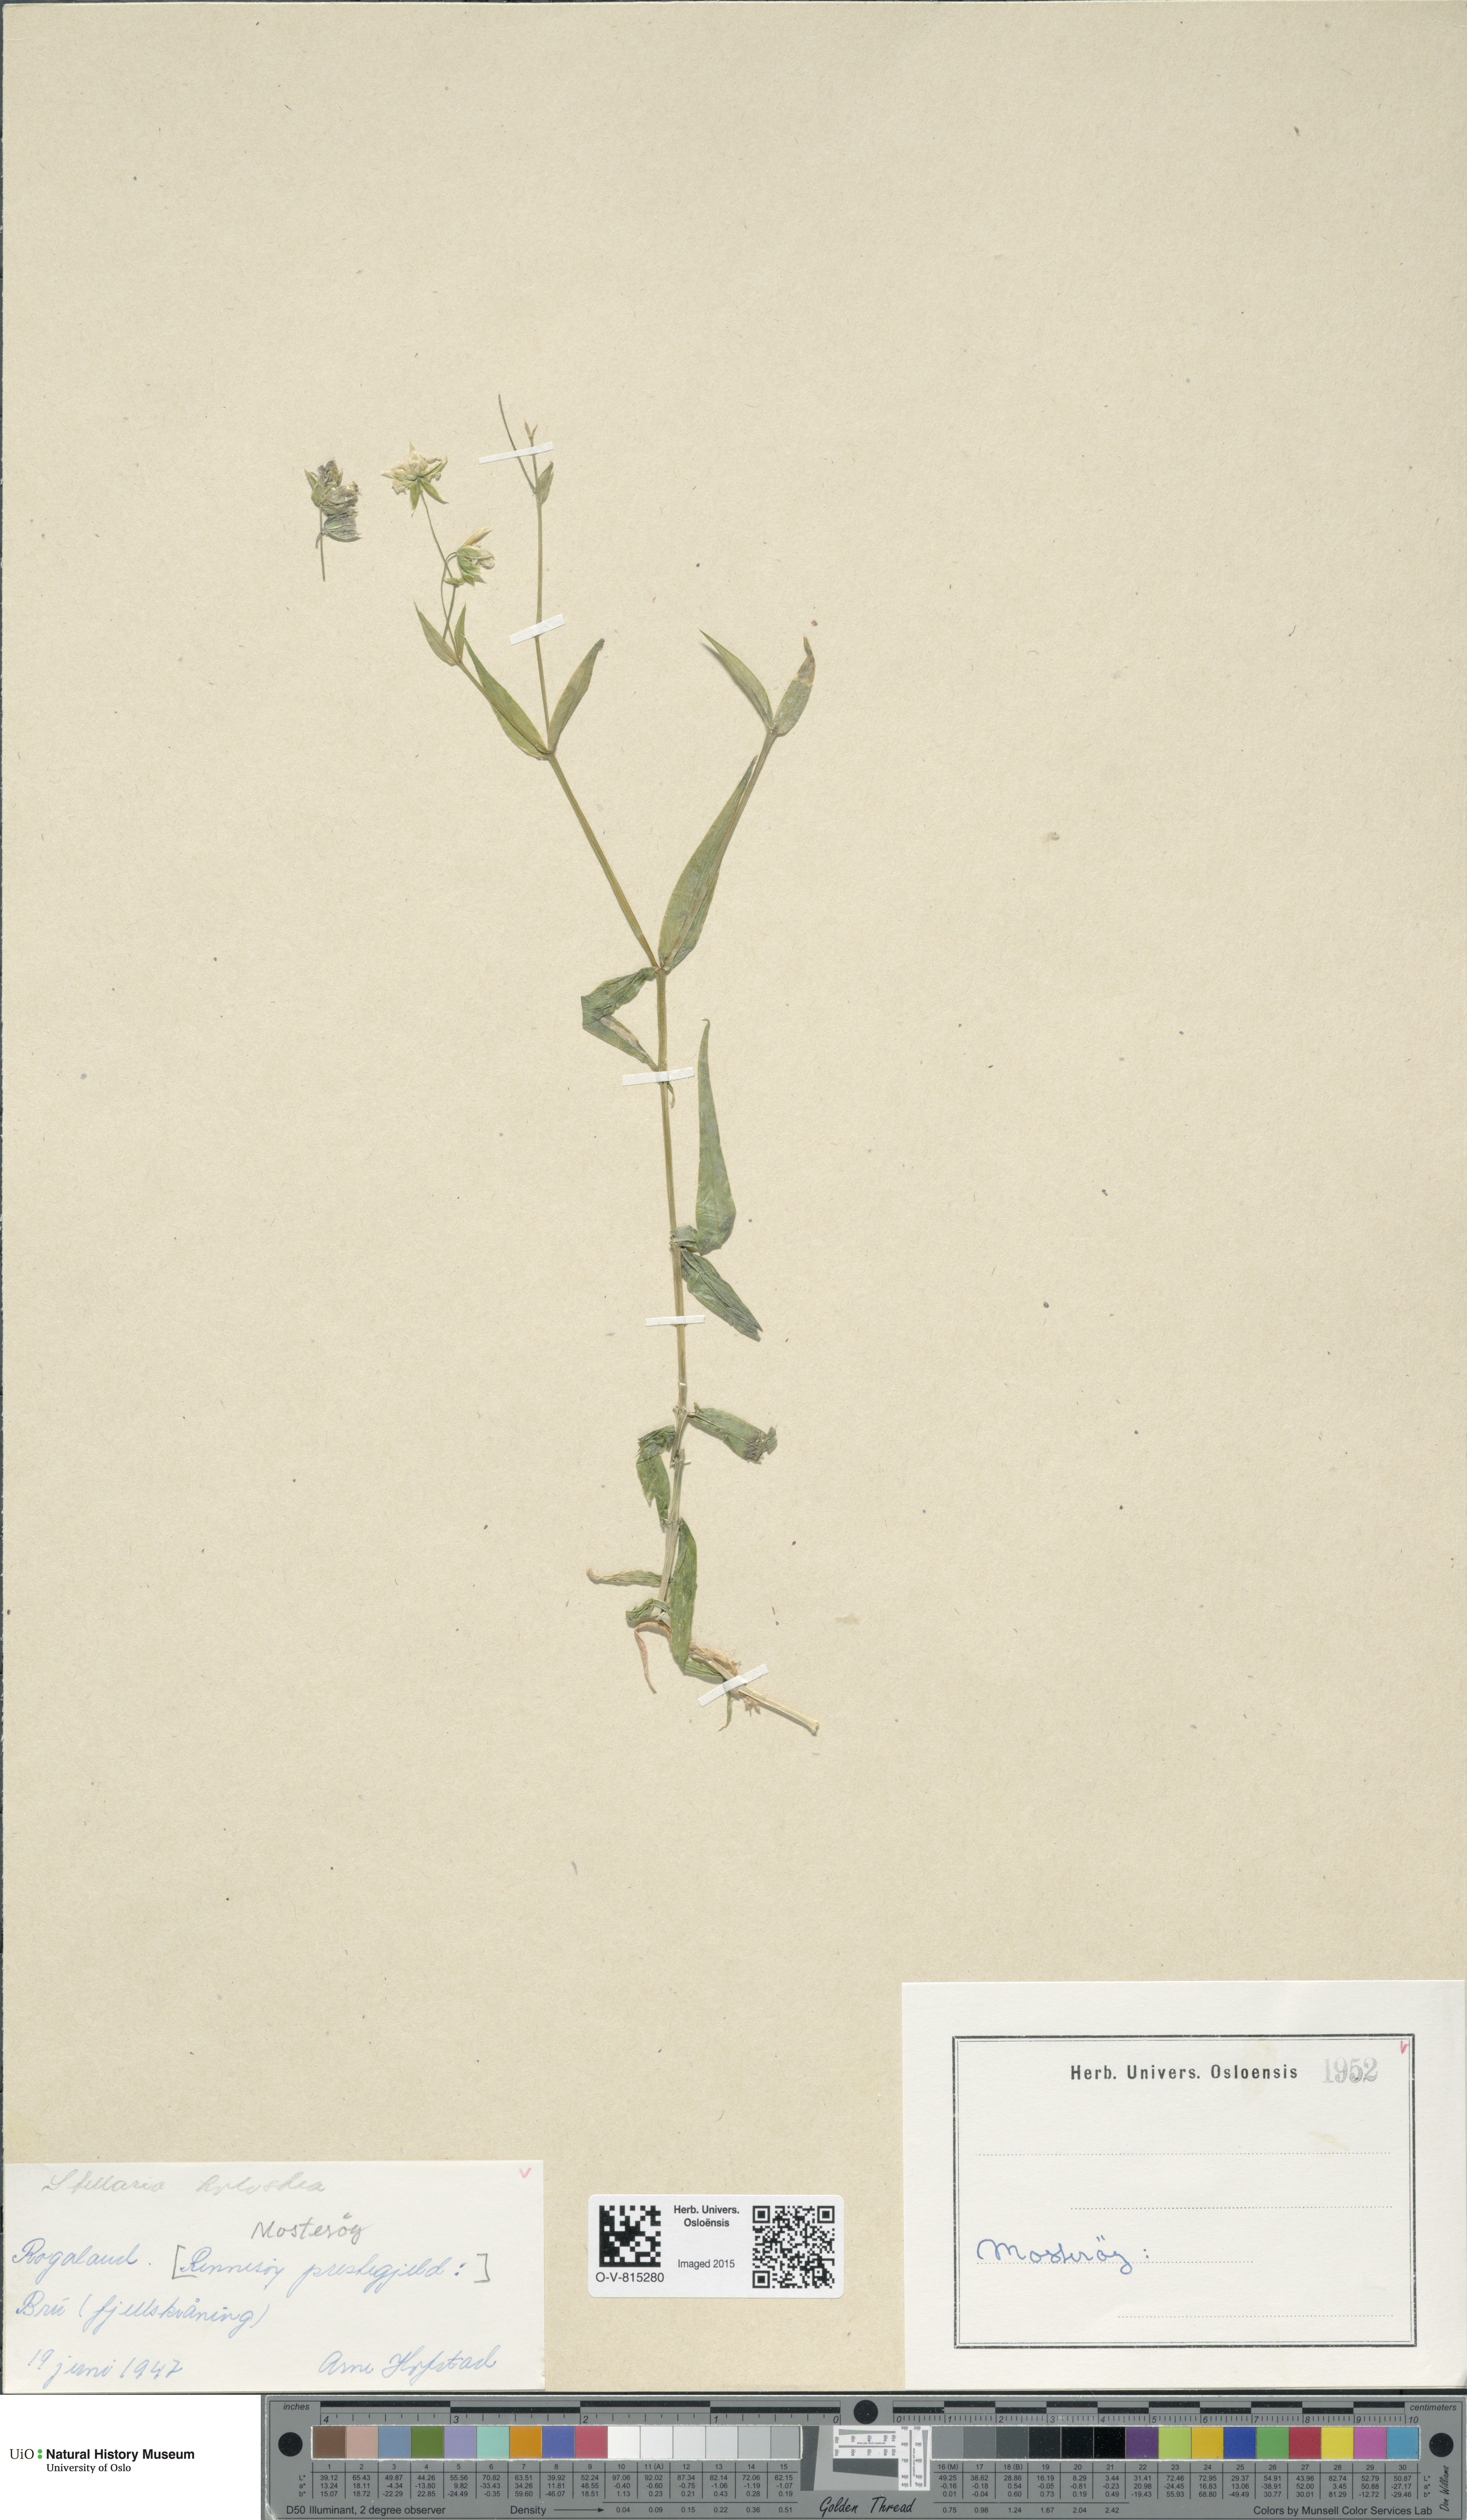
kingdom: Plantae
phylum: Tracheophyta
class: Magnoliopsida
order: Caryophyllales
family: Caryophyllaceae
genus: Rabelera
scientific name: Rabelera holostea
